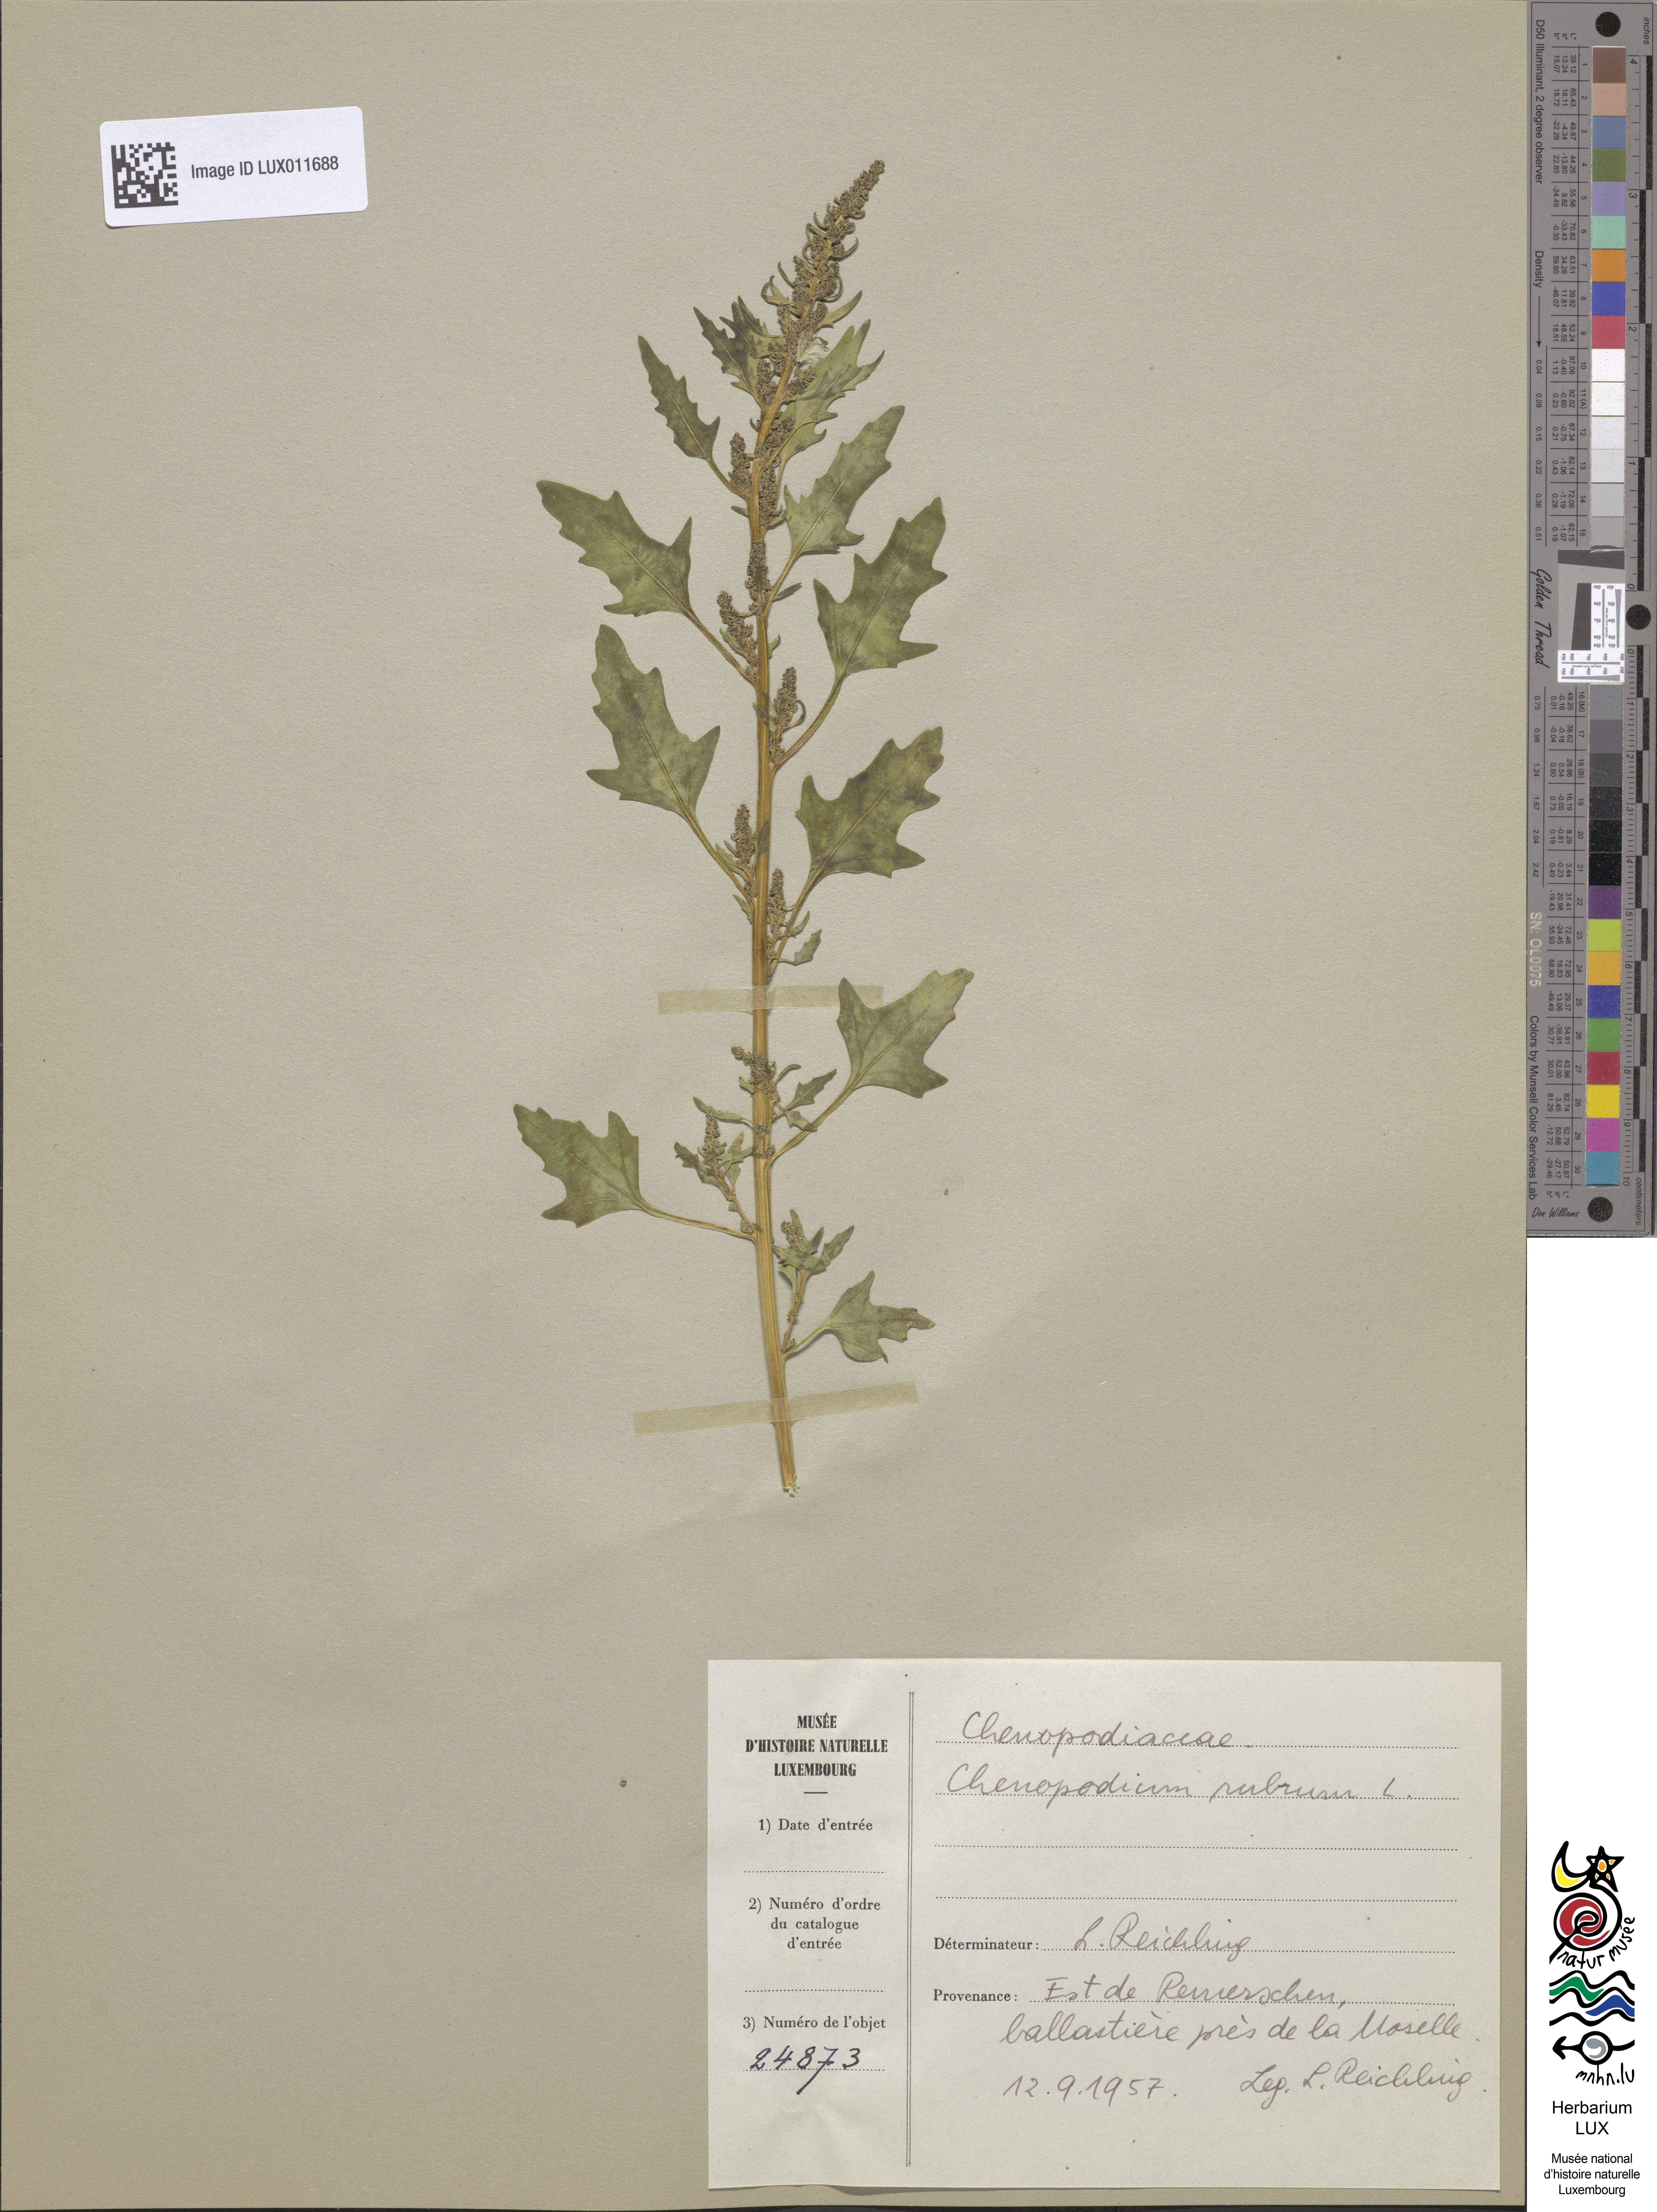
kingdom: Plantae
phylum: Tracheophyta
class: Magnoliopsida
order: Caryophyllales
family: Amaranthaceae
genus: Oxybasis
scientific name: Oxybasis rubra
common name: Red goosefoot
